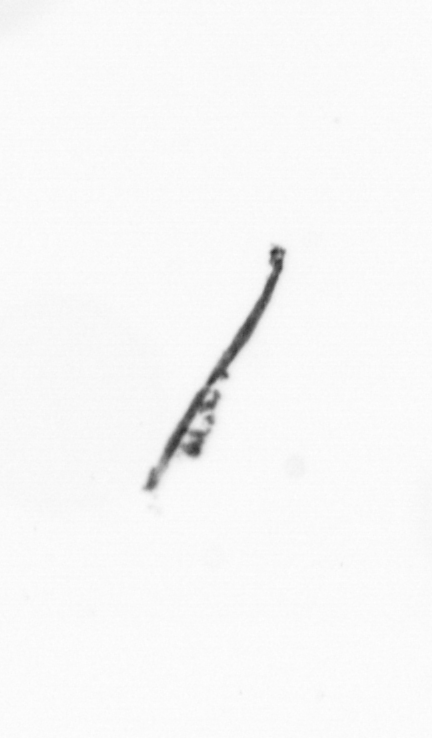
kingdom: Chromista
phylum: Ochrophyta
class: Bacillariophyceae
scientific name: Bacillariophyceae
